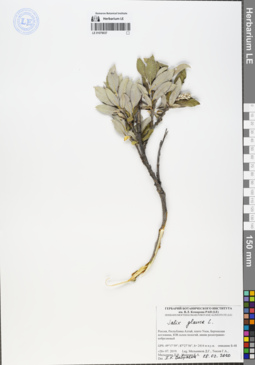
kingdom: Plantae
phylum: Tracheophyta
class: Magnoliopsida
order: Malpighiales
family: Salicaceae
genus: Salix
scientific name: Salix glauca
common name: Glaucous willow
